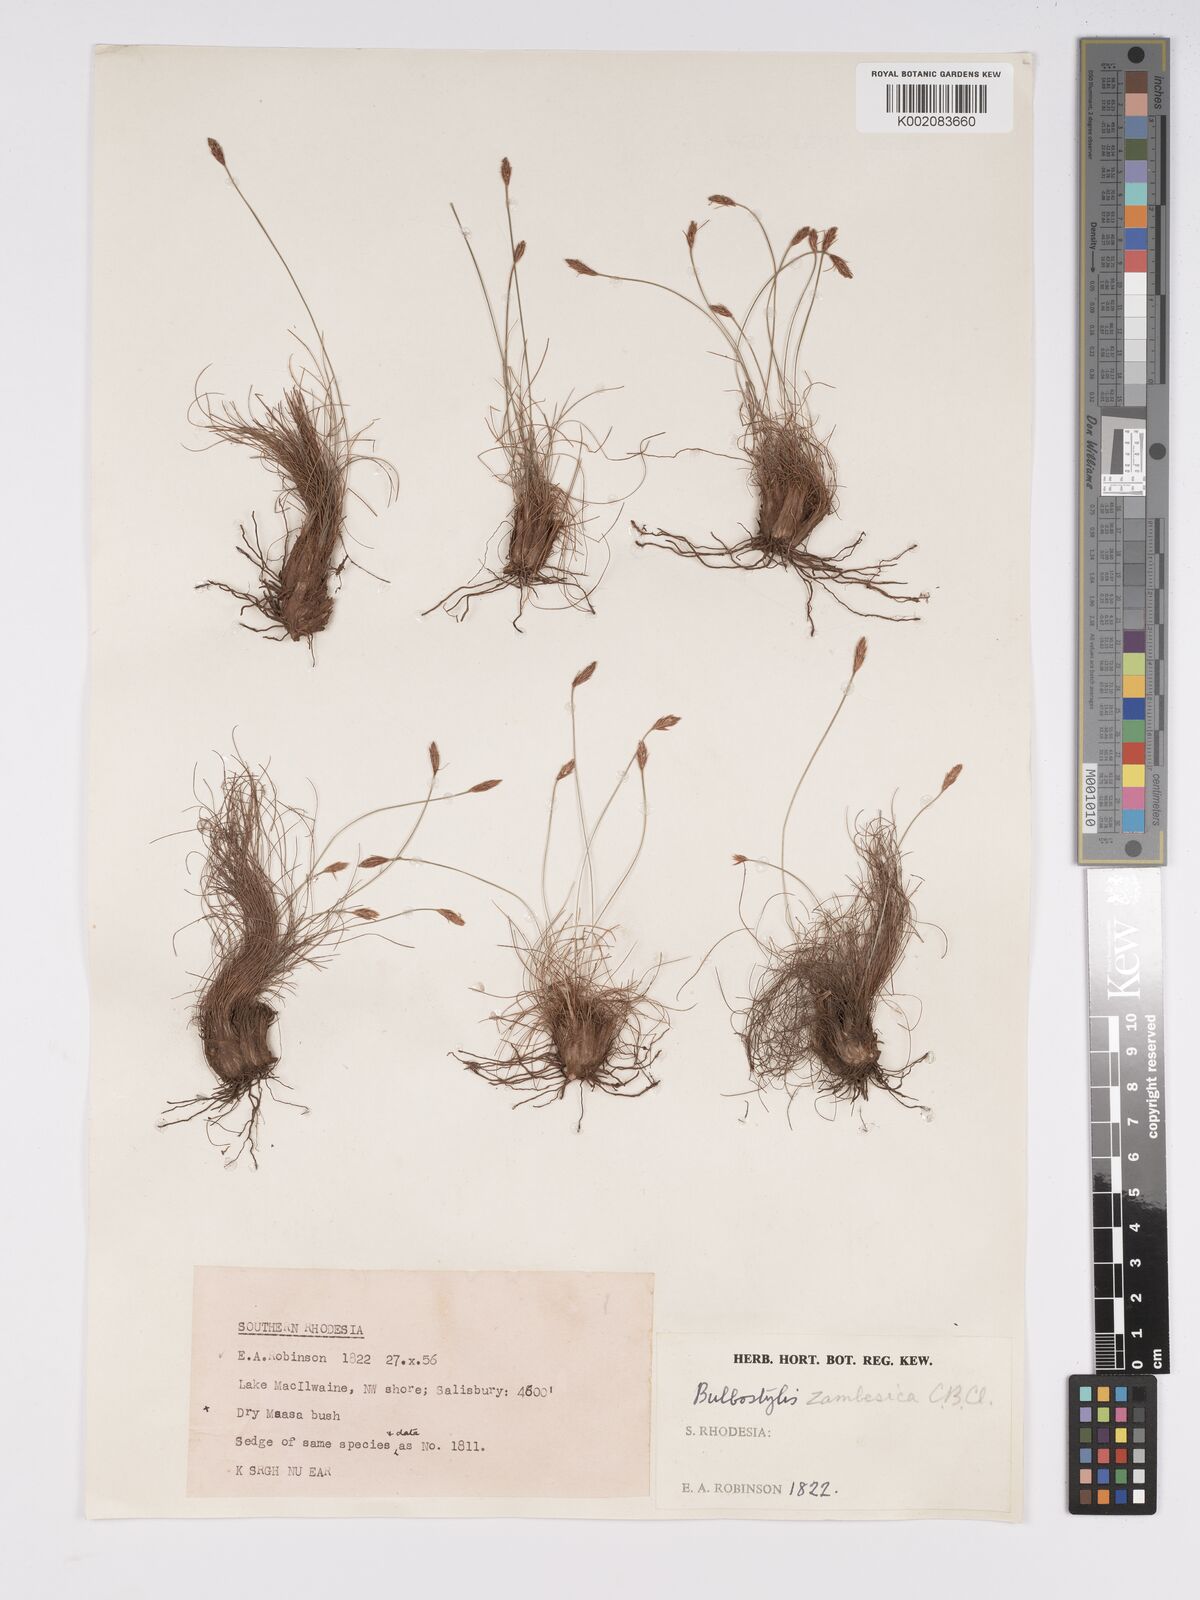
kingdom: Plantae
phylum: Tracheophyta
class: Liliopsida
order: Poales
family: Cyperaceae
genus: Bulbostylis
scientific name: Bulbostylis macra
